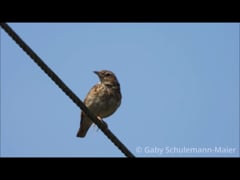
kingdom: Animalia
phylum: Chordata
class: Aves
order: Passeriformes
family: Alaudidae
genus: Lullula
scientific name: Lullula arborea
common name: Woodlark
